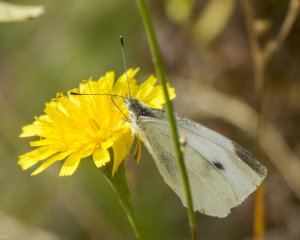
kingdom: Animalia
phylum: Arthropoda
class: Insecta
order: Lepidoptera
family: Pieridae
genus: Pieris
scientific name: Pieris rapae
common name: Cabbage White
